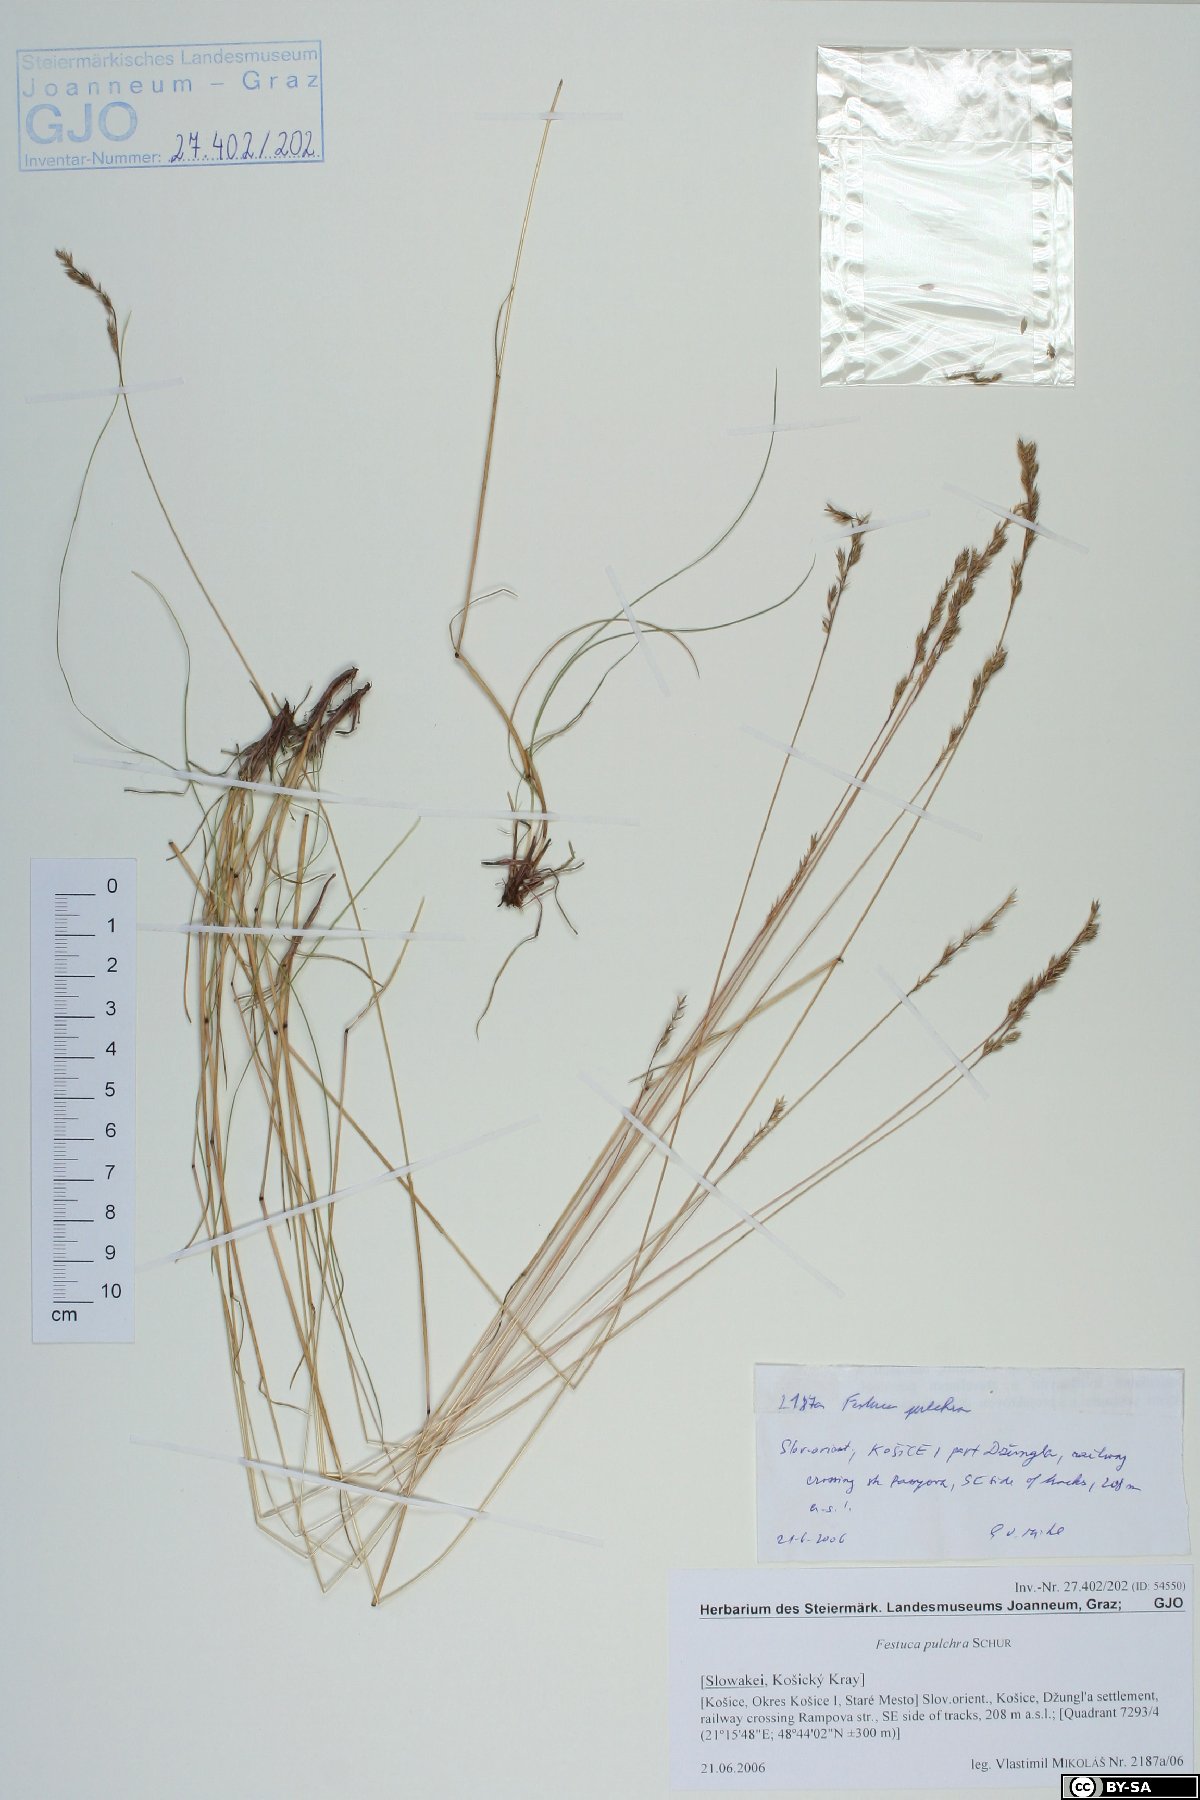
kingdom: Plantae
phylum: Tracheophyta
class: Liliopsida
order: Poales
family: Poaceae
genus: Festuca
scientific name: Festuca pulchra
